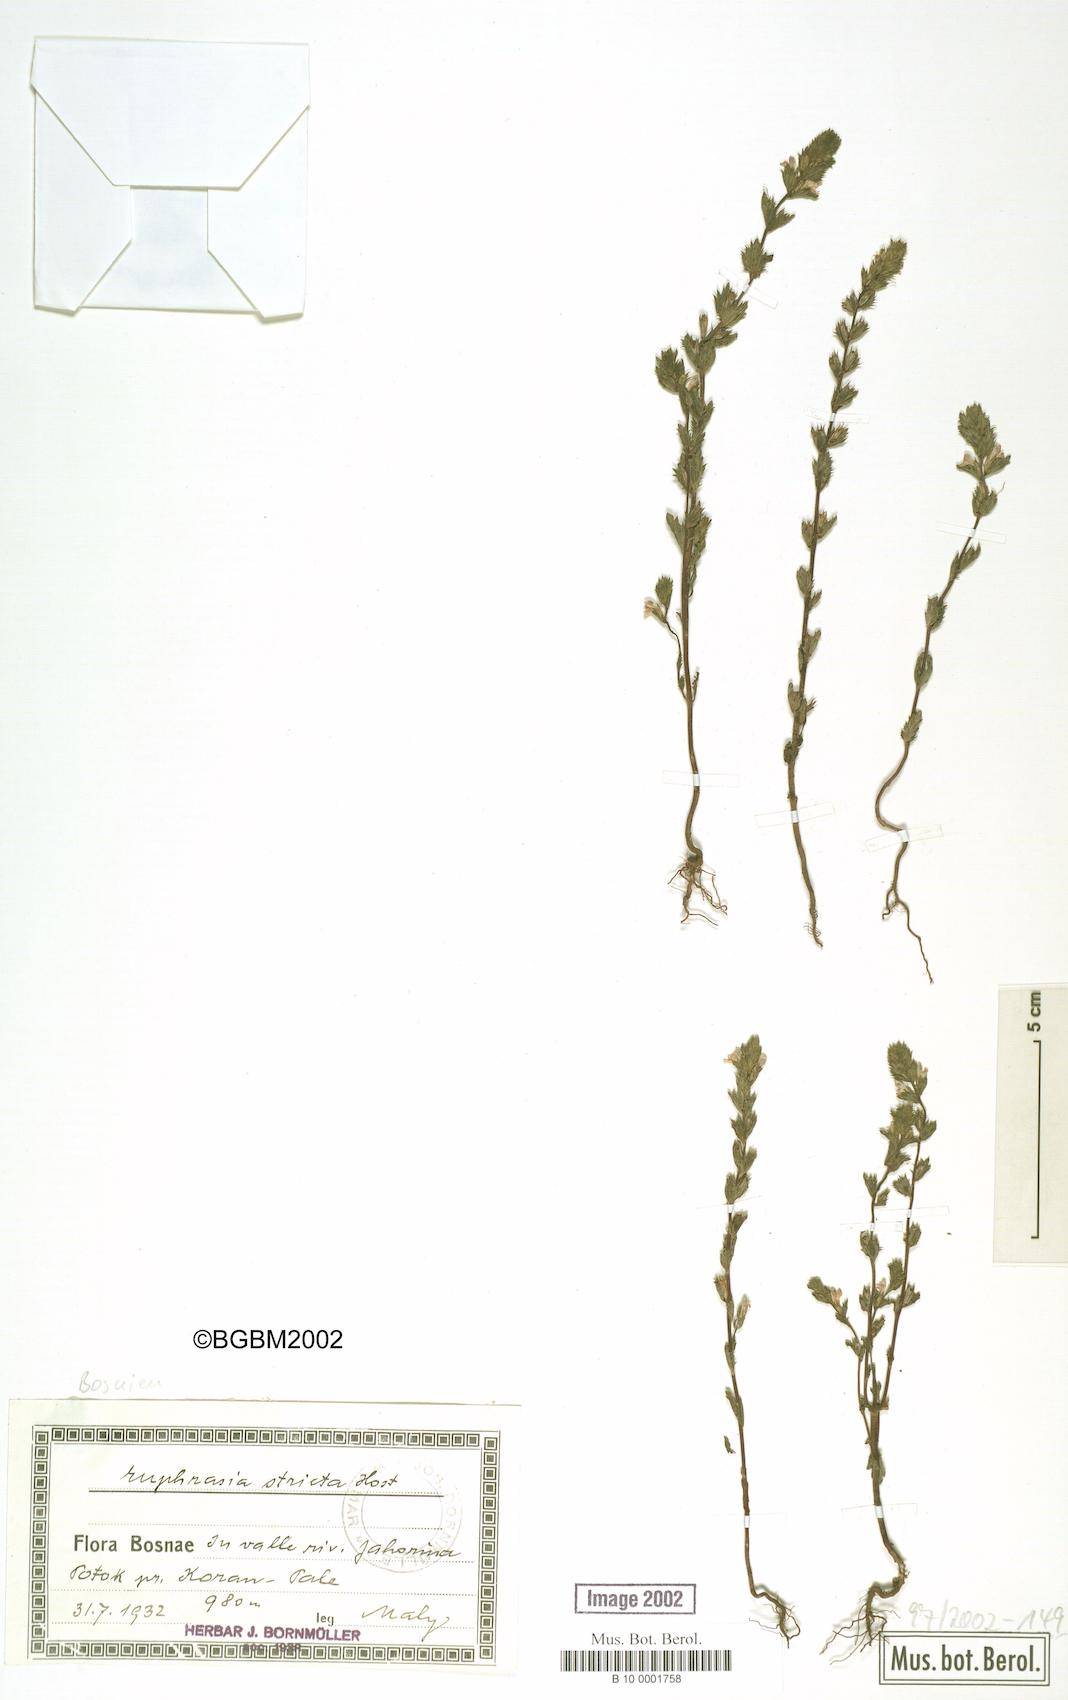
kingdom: Plantae
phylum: Tracheophyta
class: Magnoliopsida
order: Lamiales
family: Orobanchaceae
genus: Euphrasia
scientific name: Euphrasia stricta
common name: Drug eyebright
